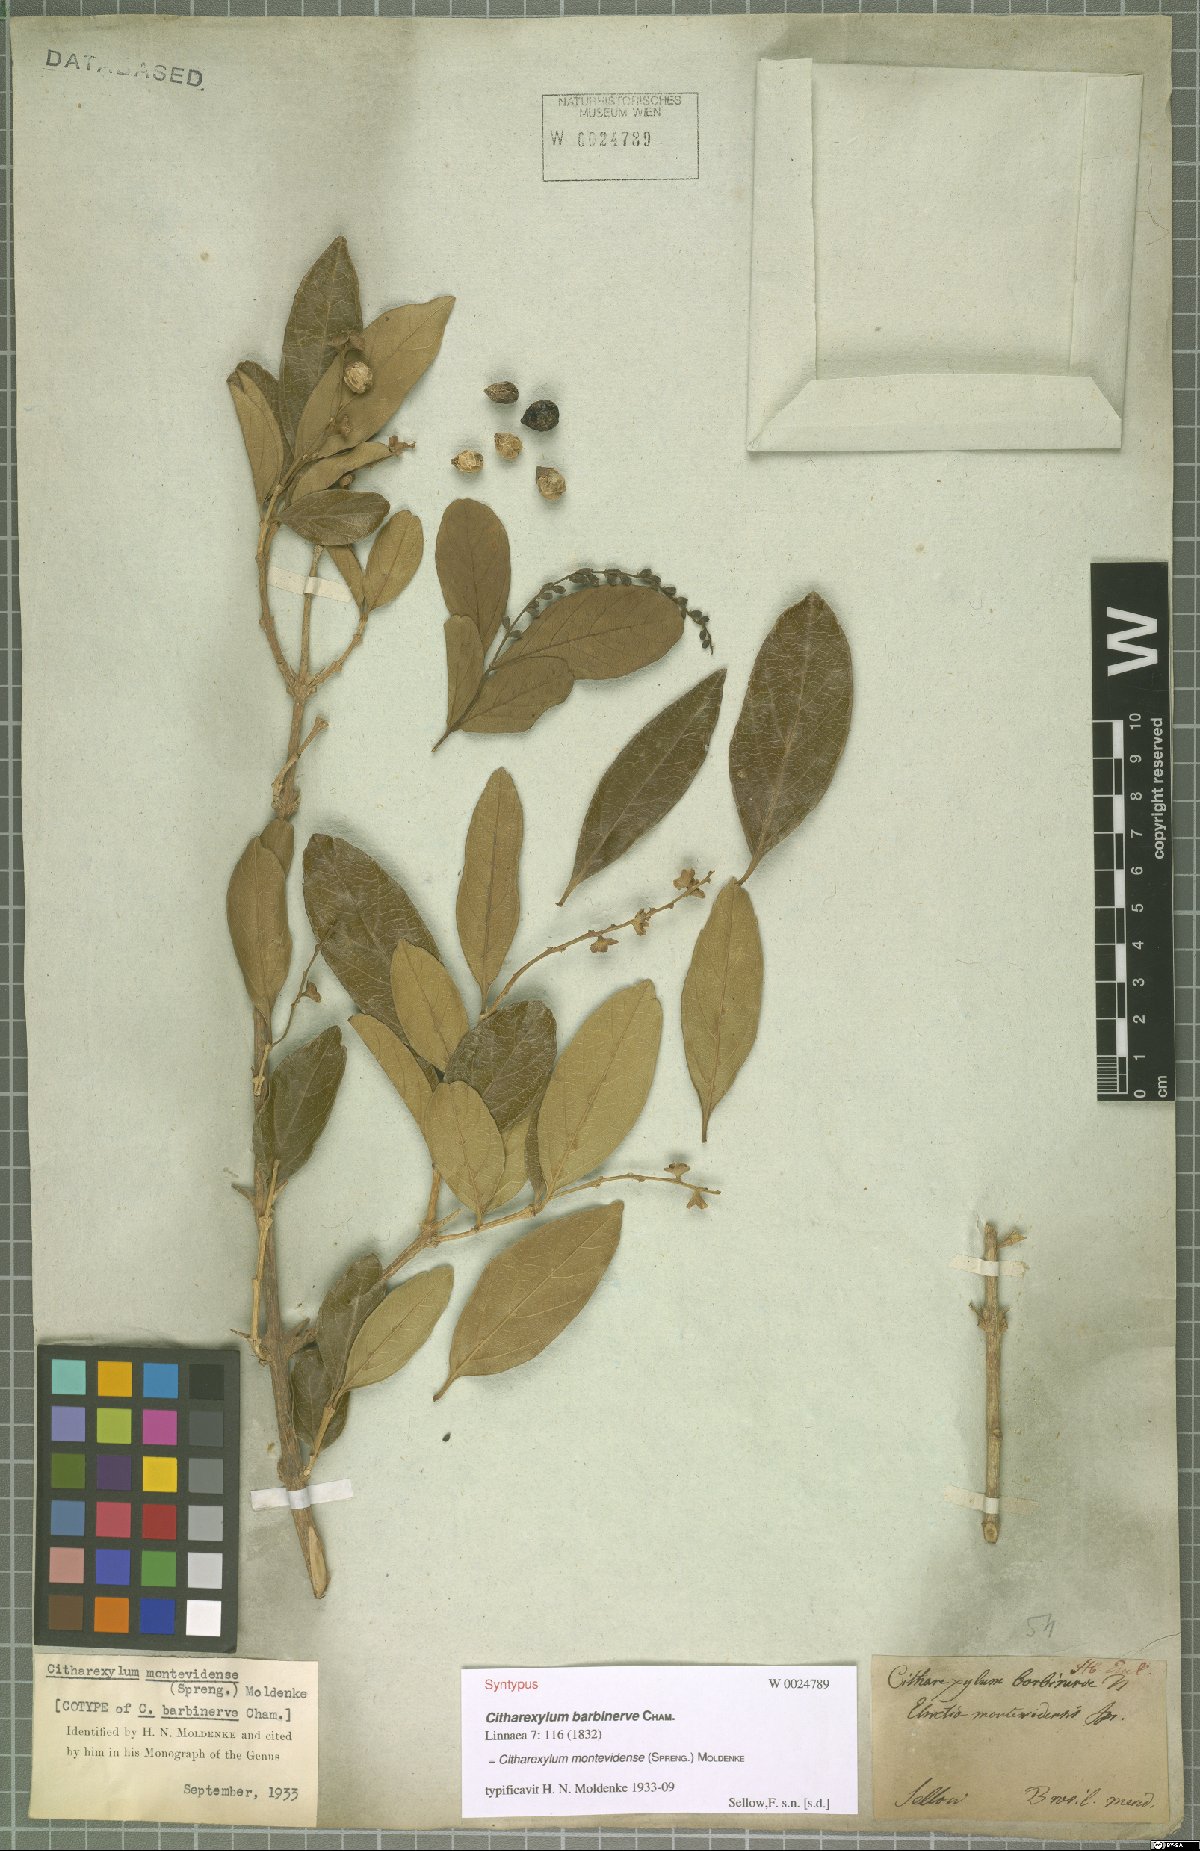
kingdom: Plantae
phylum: Tracheophyta
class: Magnoliopsida
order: Lamiales
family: Verbenaceae
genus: Citharexylum
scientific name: Citharexylum montevidense
